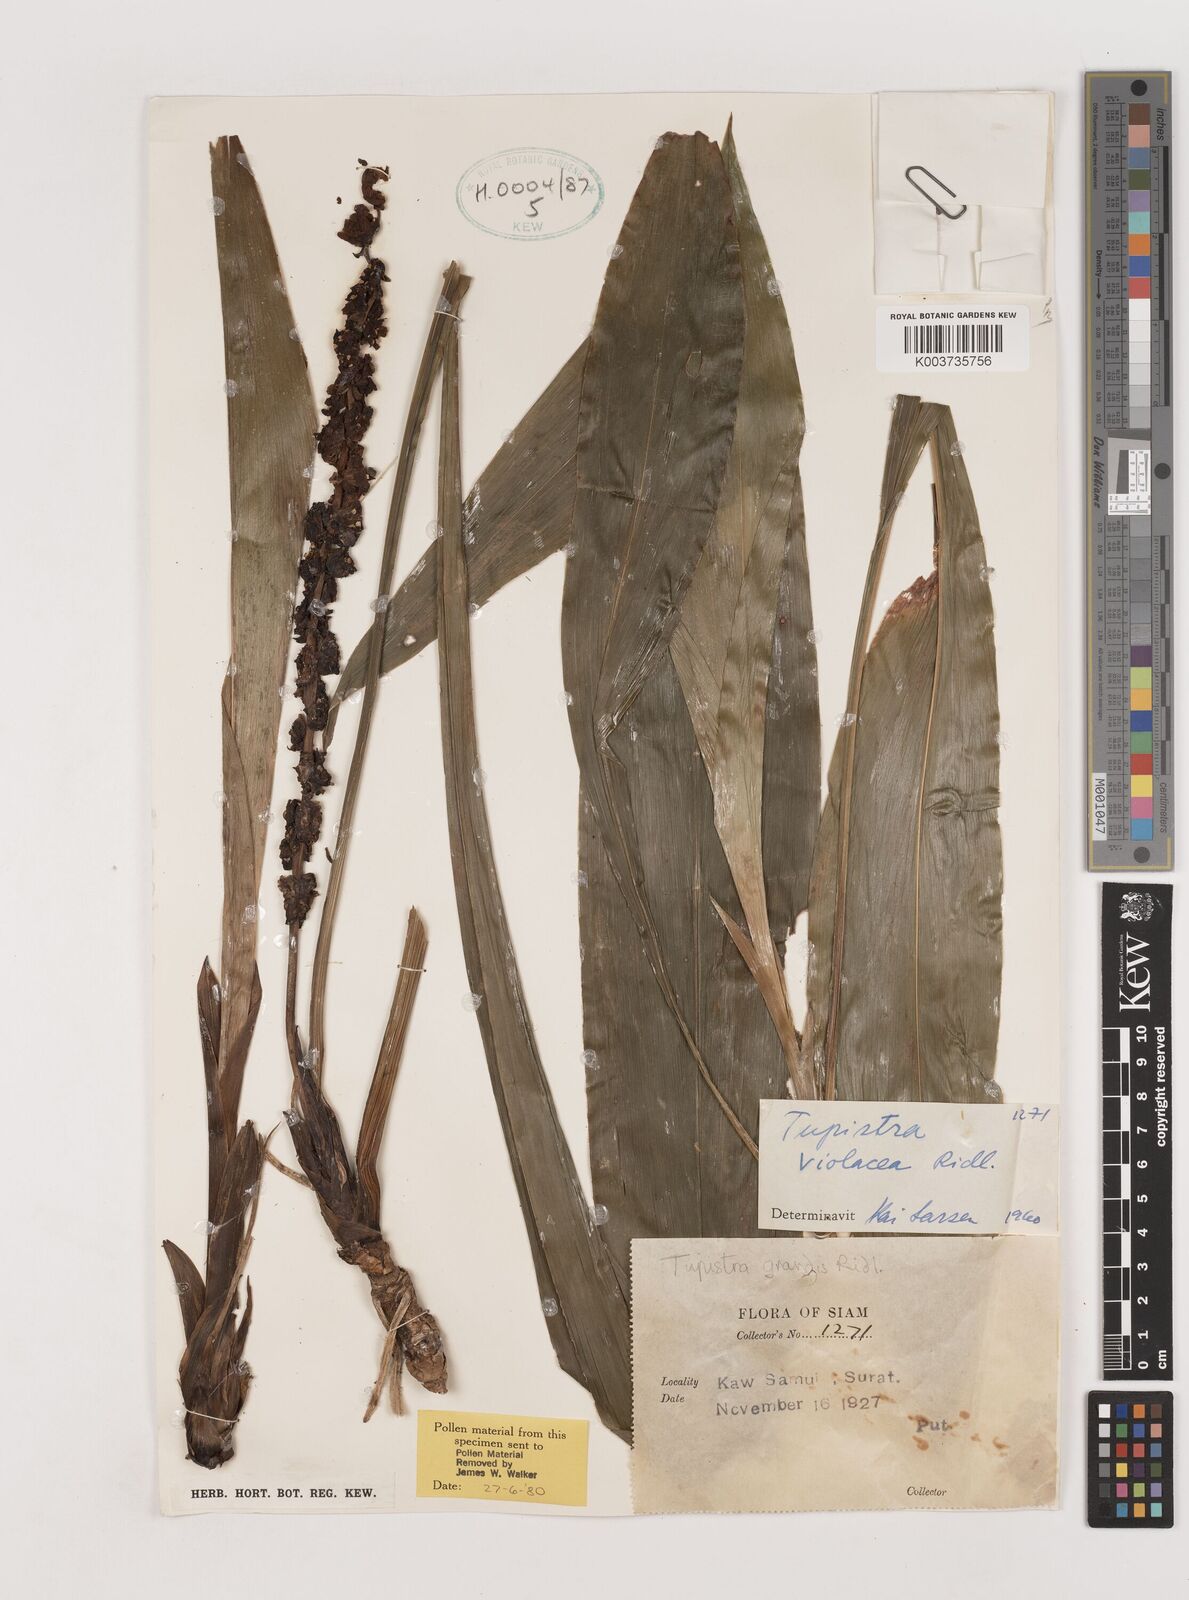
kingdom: Plantae
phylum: Tracheophyta
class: Liliopsida
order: Asparagales
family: Asparagaceae
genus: Tupistra
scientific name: Tupistra violacea
